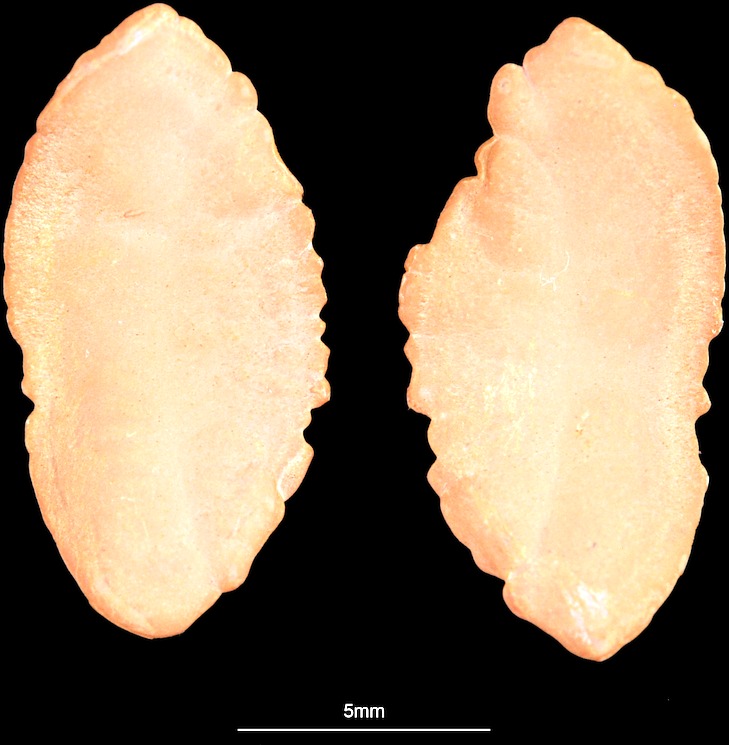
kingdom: Animalia
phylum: Chordata
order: Gadiformes
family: Lotidae
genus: Brosme
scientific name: Brosme brosme
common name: Cusk
